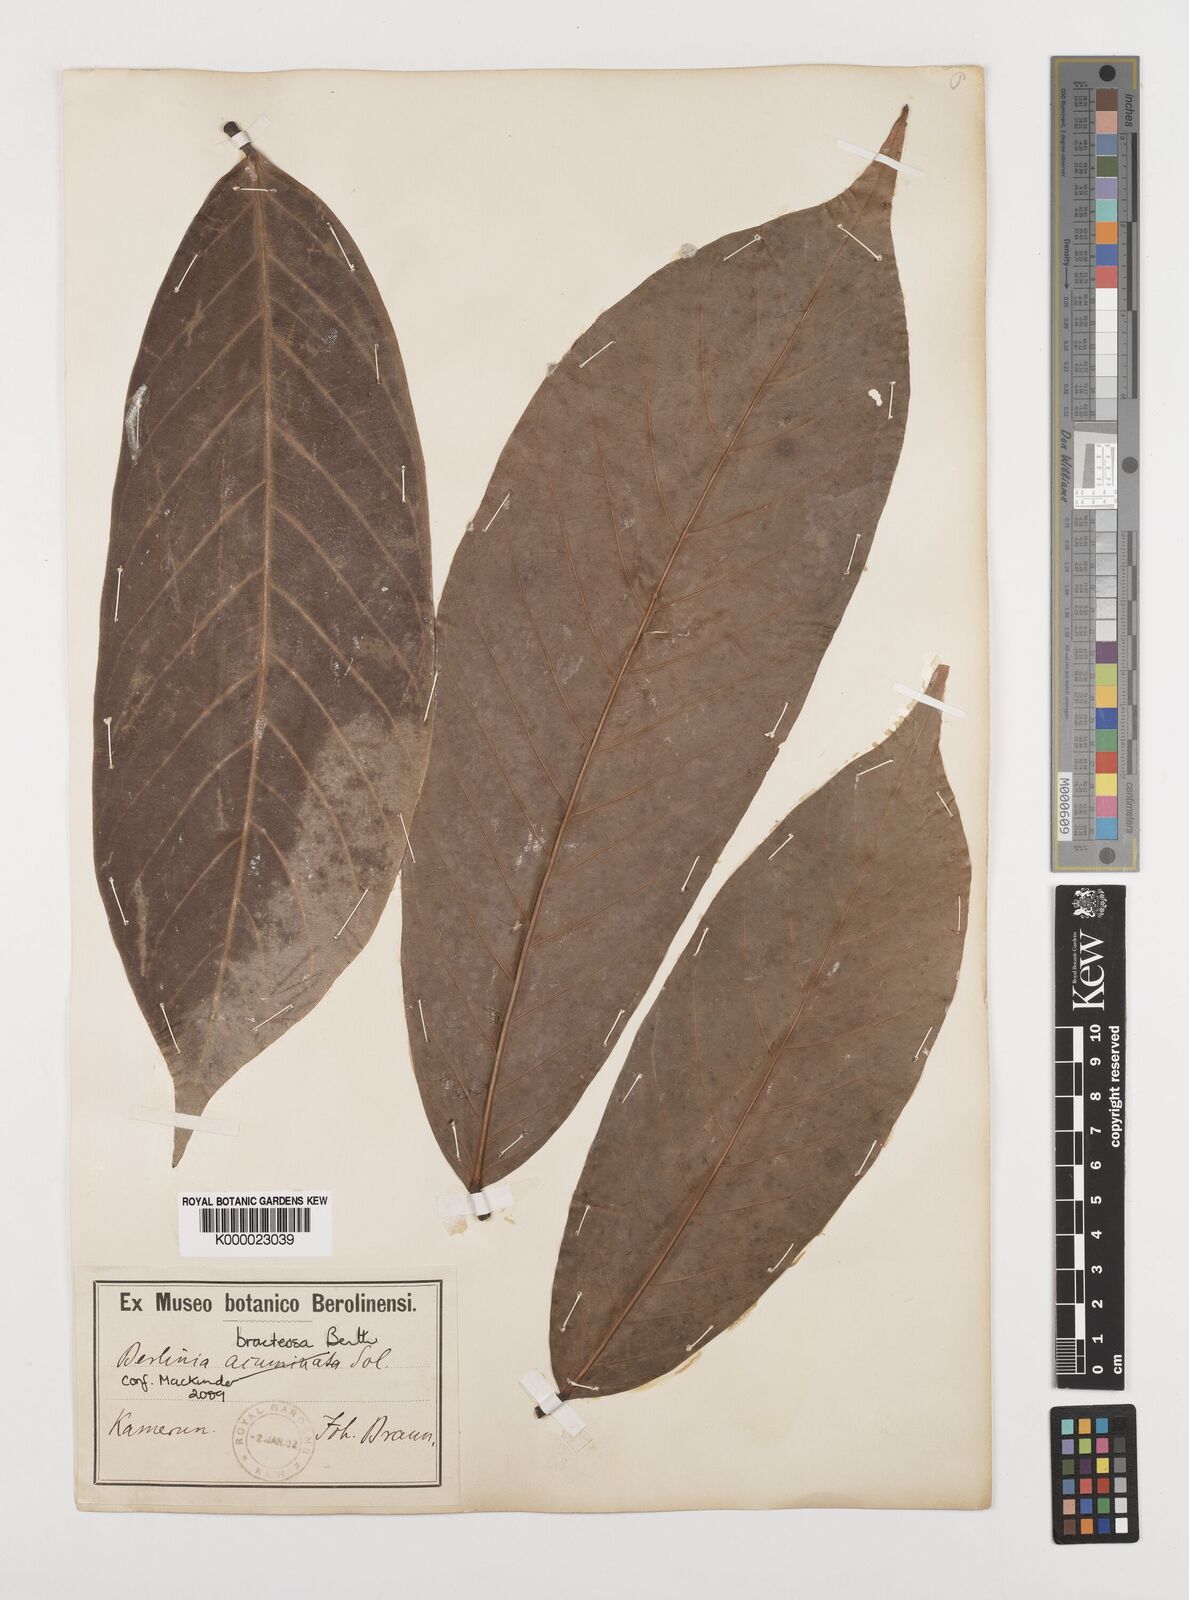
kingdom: Plantae
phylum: Tracheophyta
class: Magnoliopsida
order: Fabales
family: Fabaceae
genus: Berlinia
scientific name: Berlinia bracteosa
